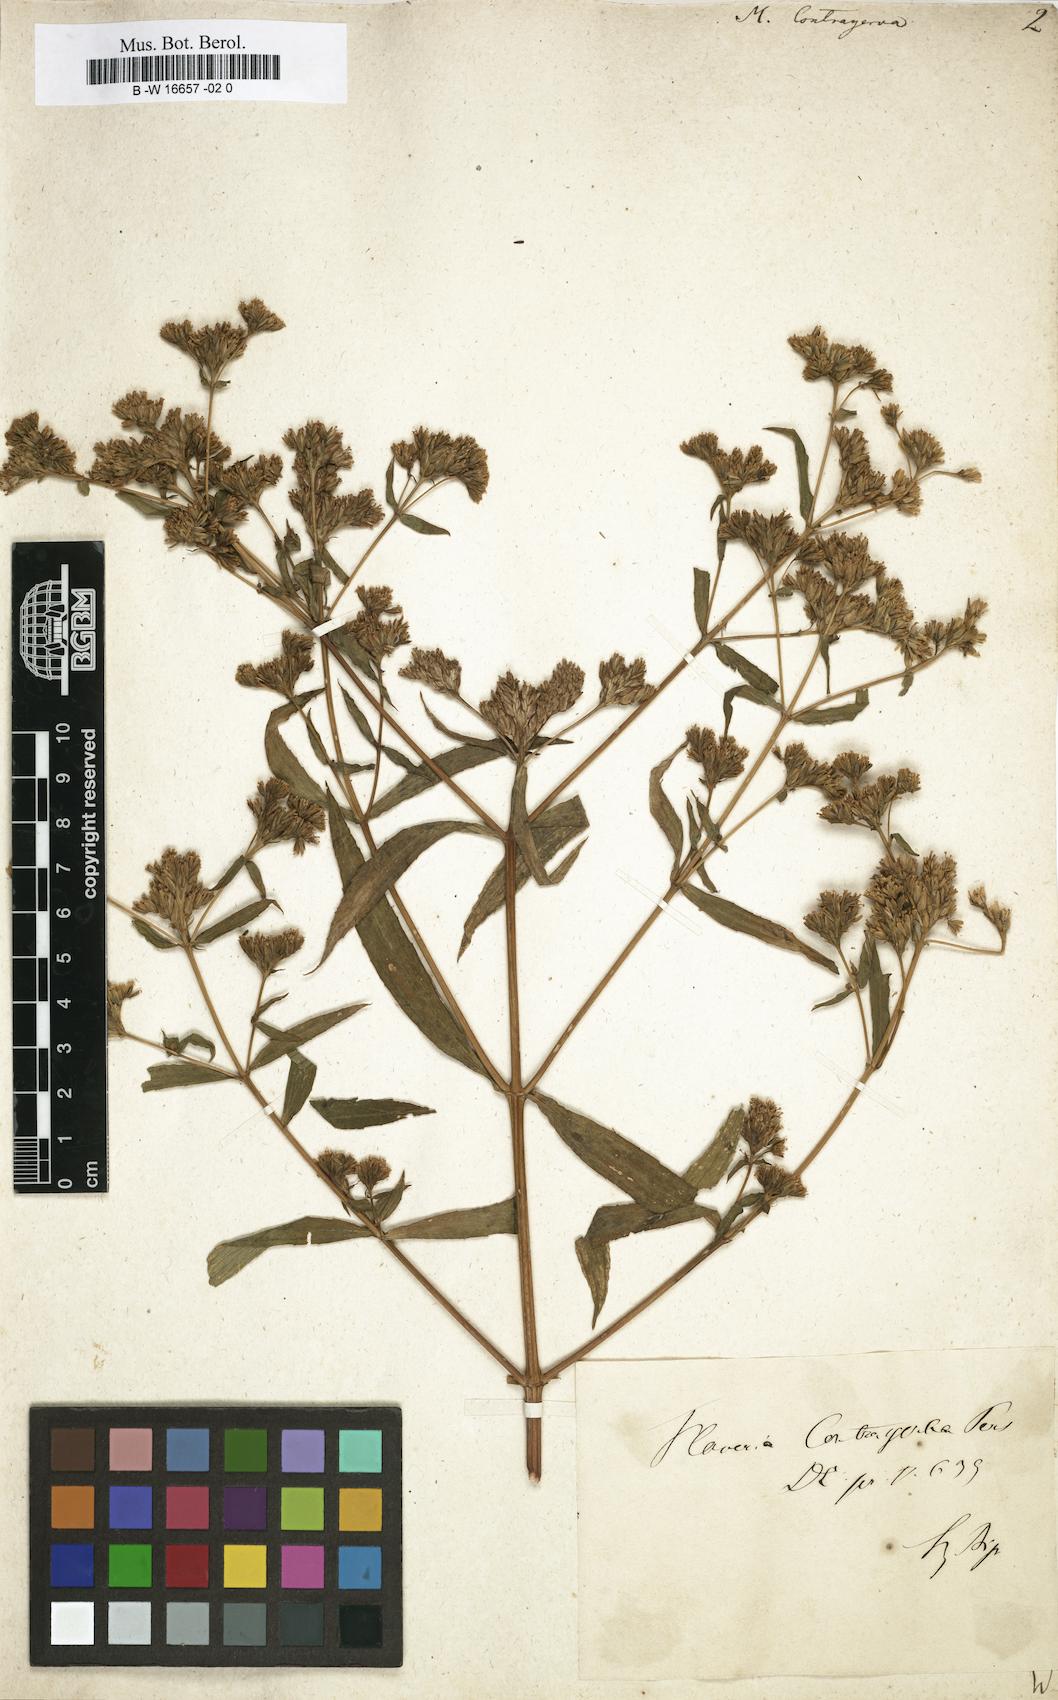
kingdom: Plantae
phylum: Tracheophyta
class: Magnoliopsida
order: Asterales
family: Asteraceae
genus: Flaveria
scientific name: Flaveria bidentis
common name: Coastal plain yellowtops
